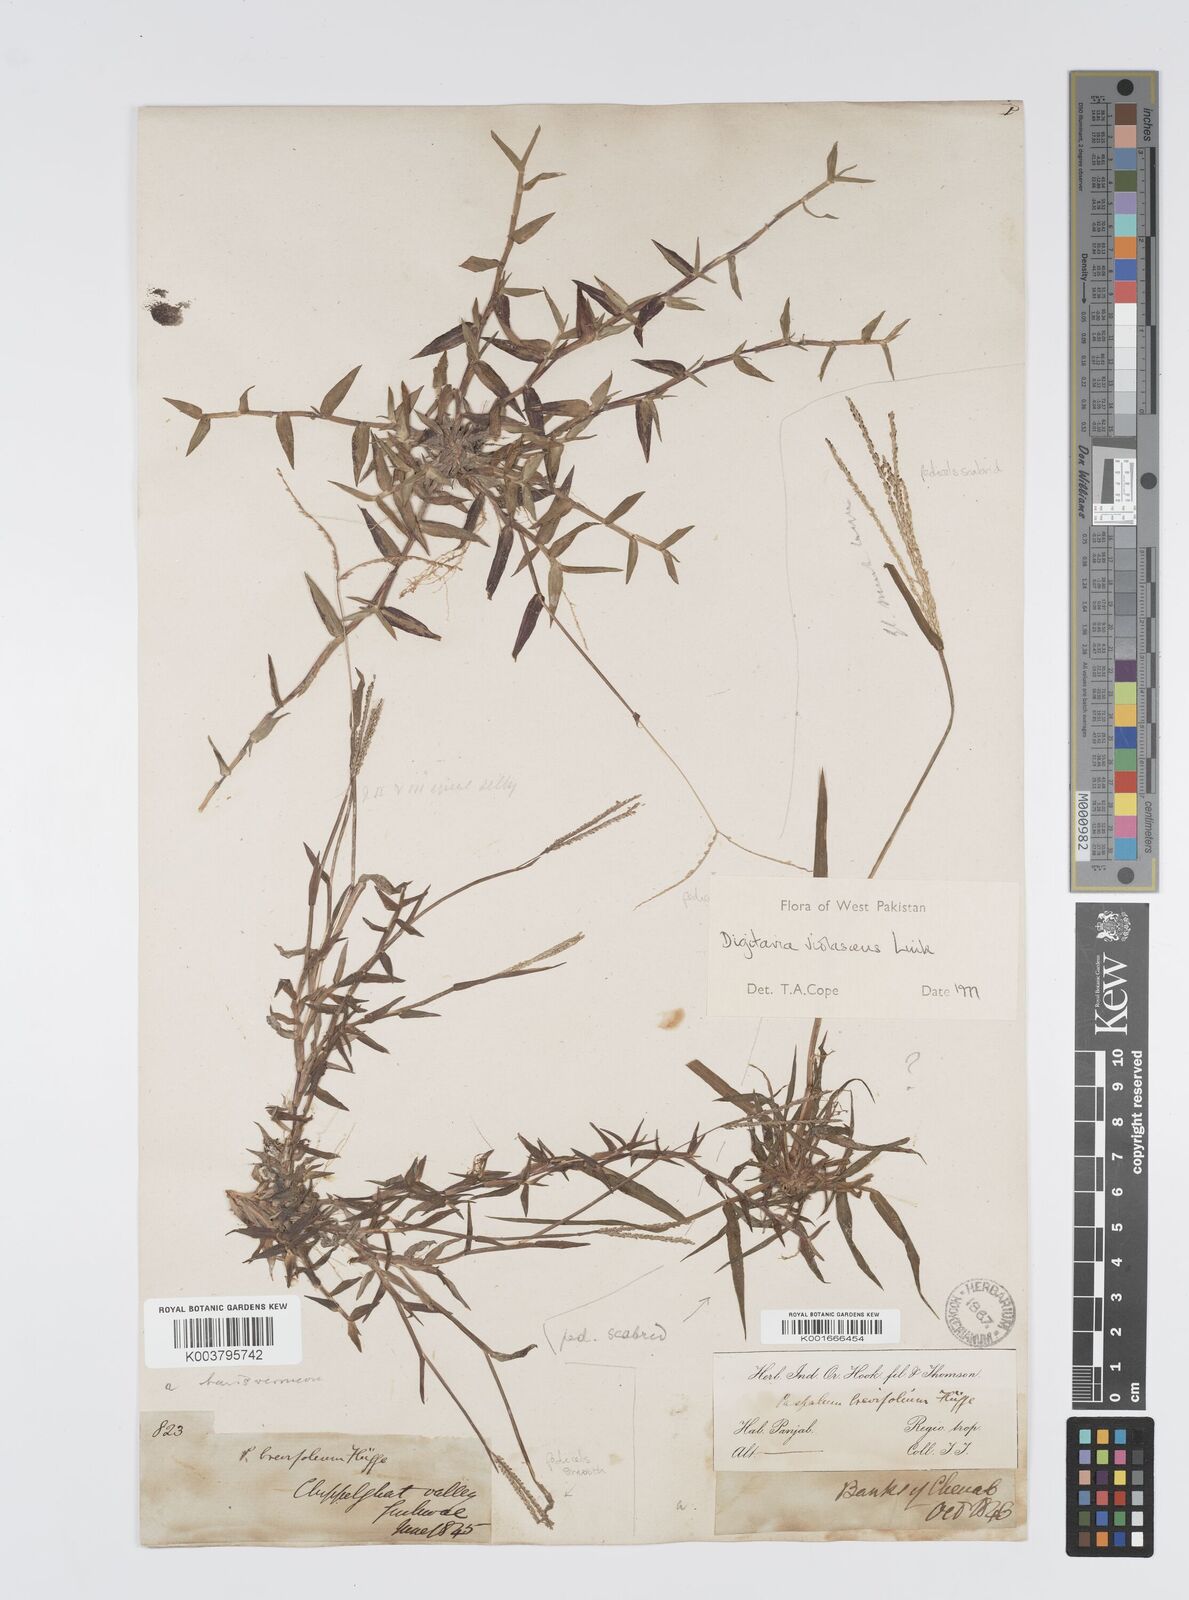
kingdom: Plantae
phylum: Tracheophyta
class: Liliopsida
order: Poales
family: Poaceae
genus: Digitaria
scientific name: Digitaria violascens
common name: Violet crabgrass
